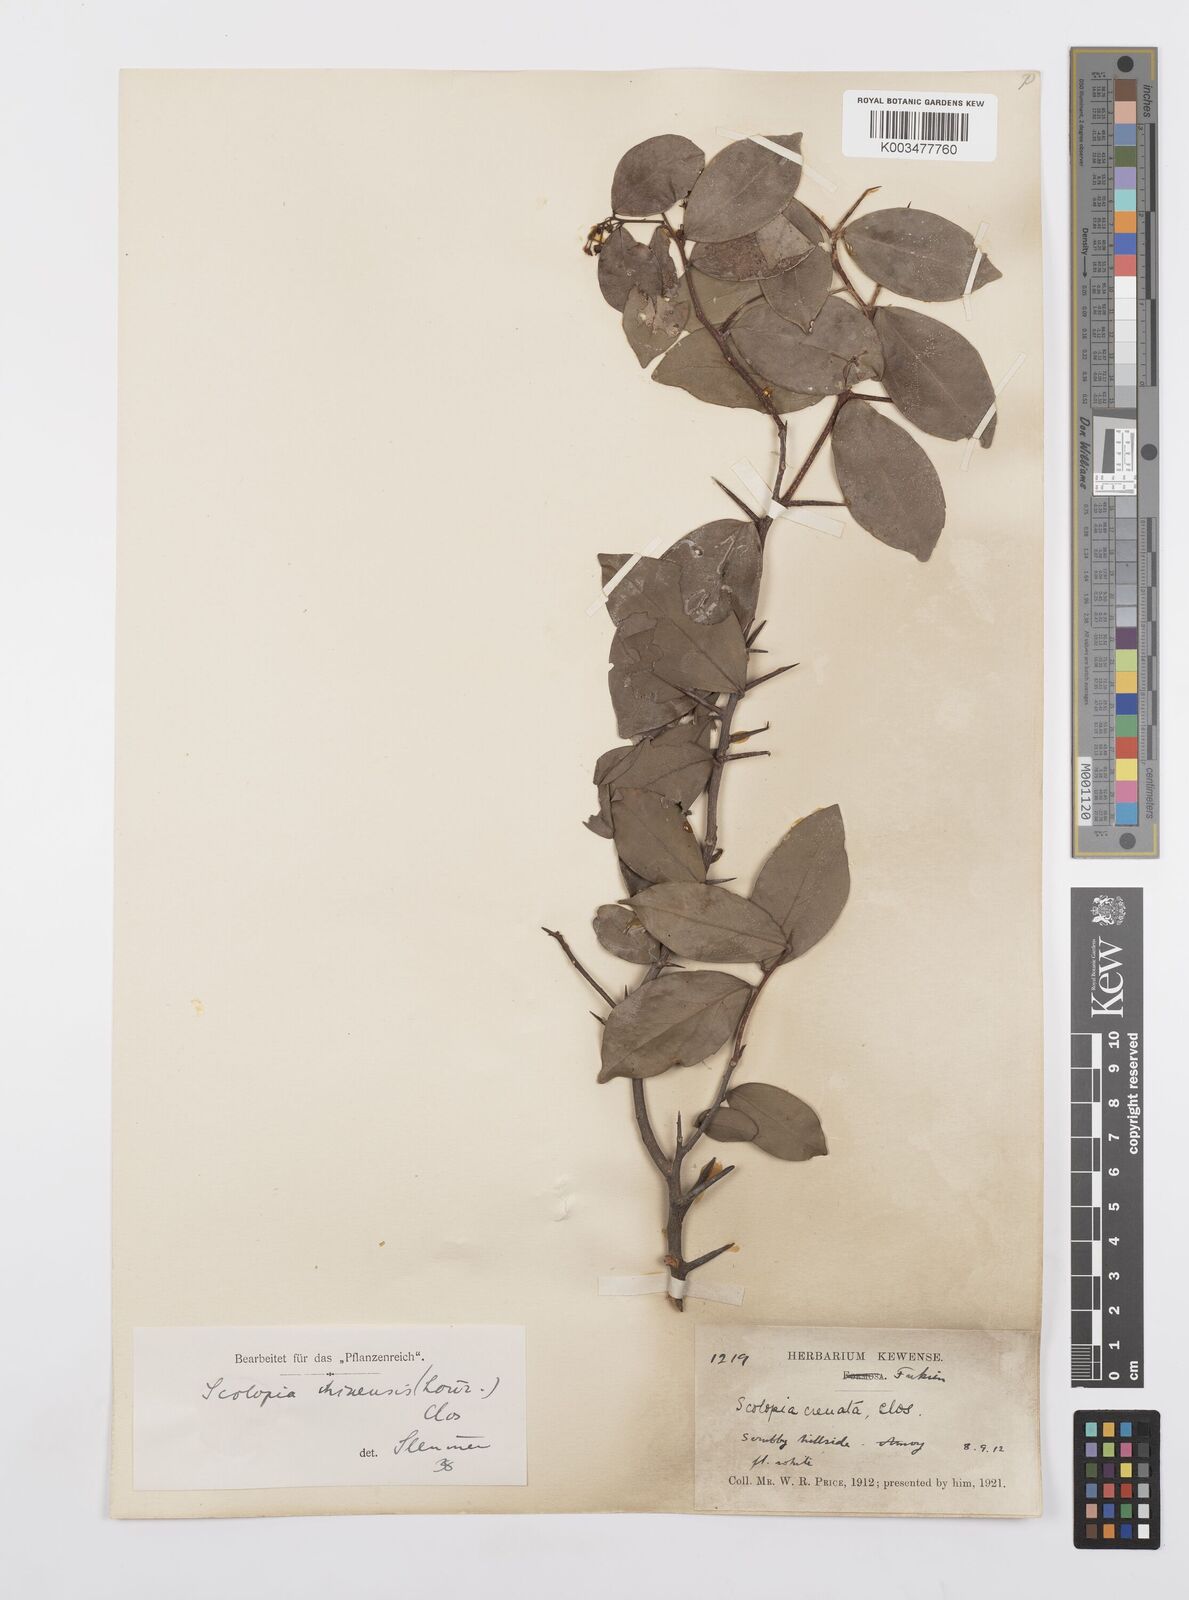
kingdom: Plantae
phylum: Tracheophyta
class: Magnoliopsida
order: Malpighiales
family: Salicaceae
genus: Scolopia
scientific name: Scolopia chinensis
